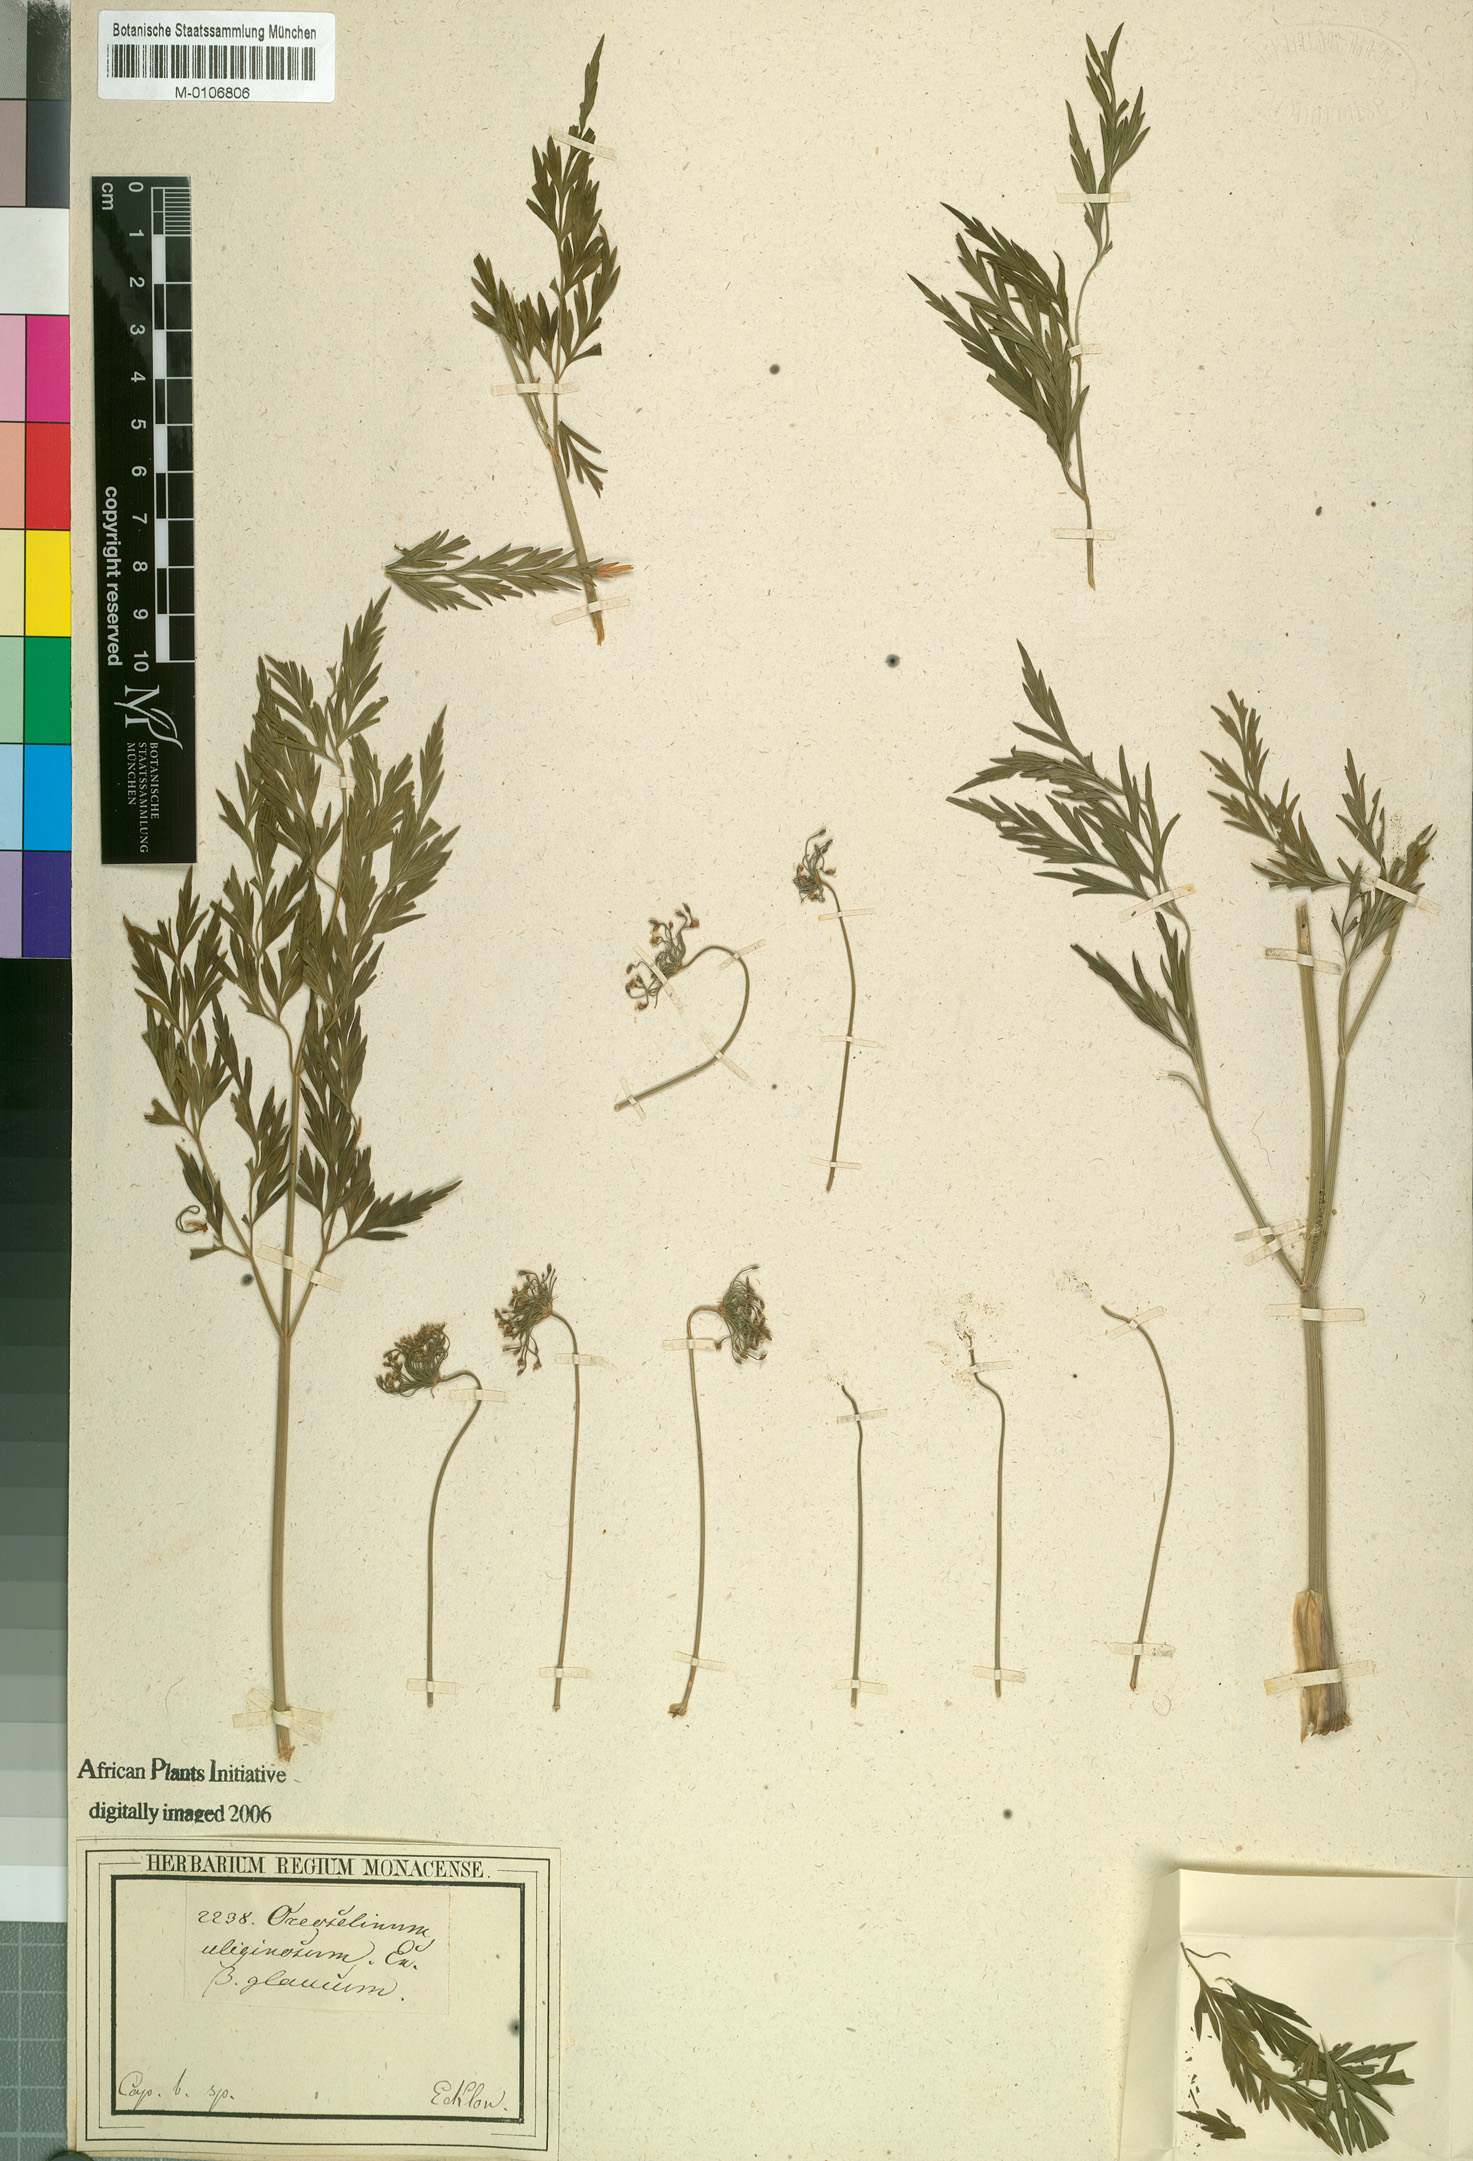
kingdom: Plantae
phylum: Tracheophyta
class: Magnoliopsida
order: Apiales
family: Apiaceae
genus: Notobubon
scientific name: Notobubon tenuifolium
